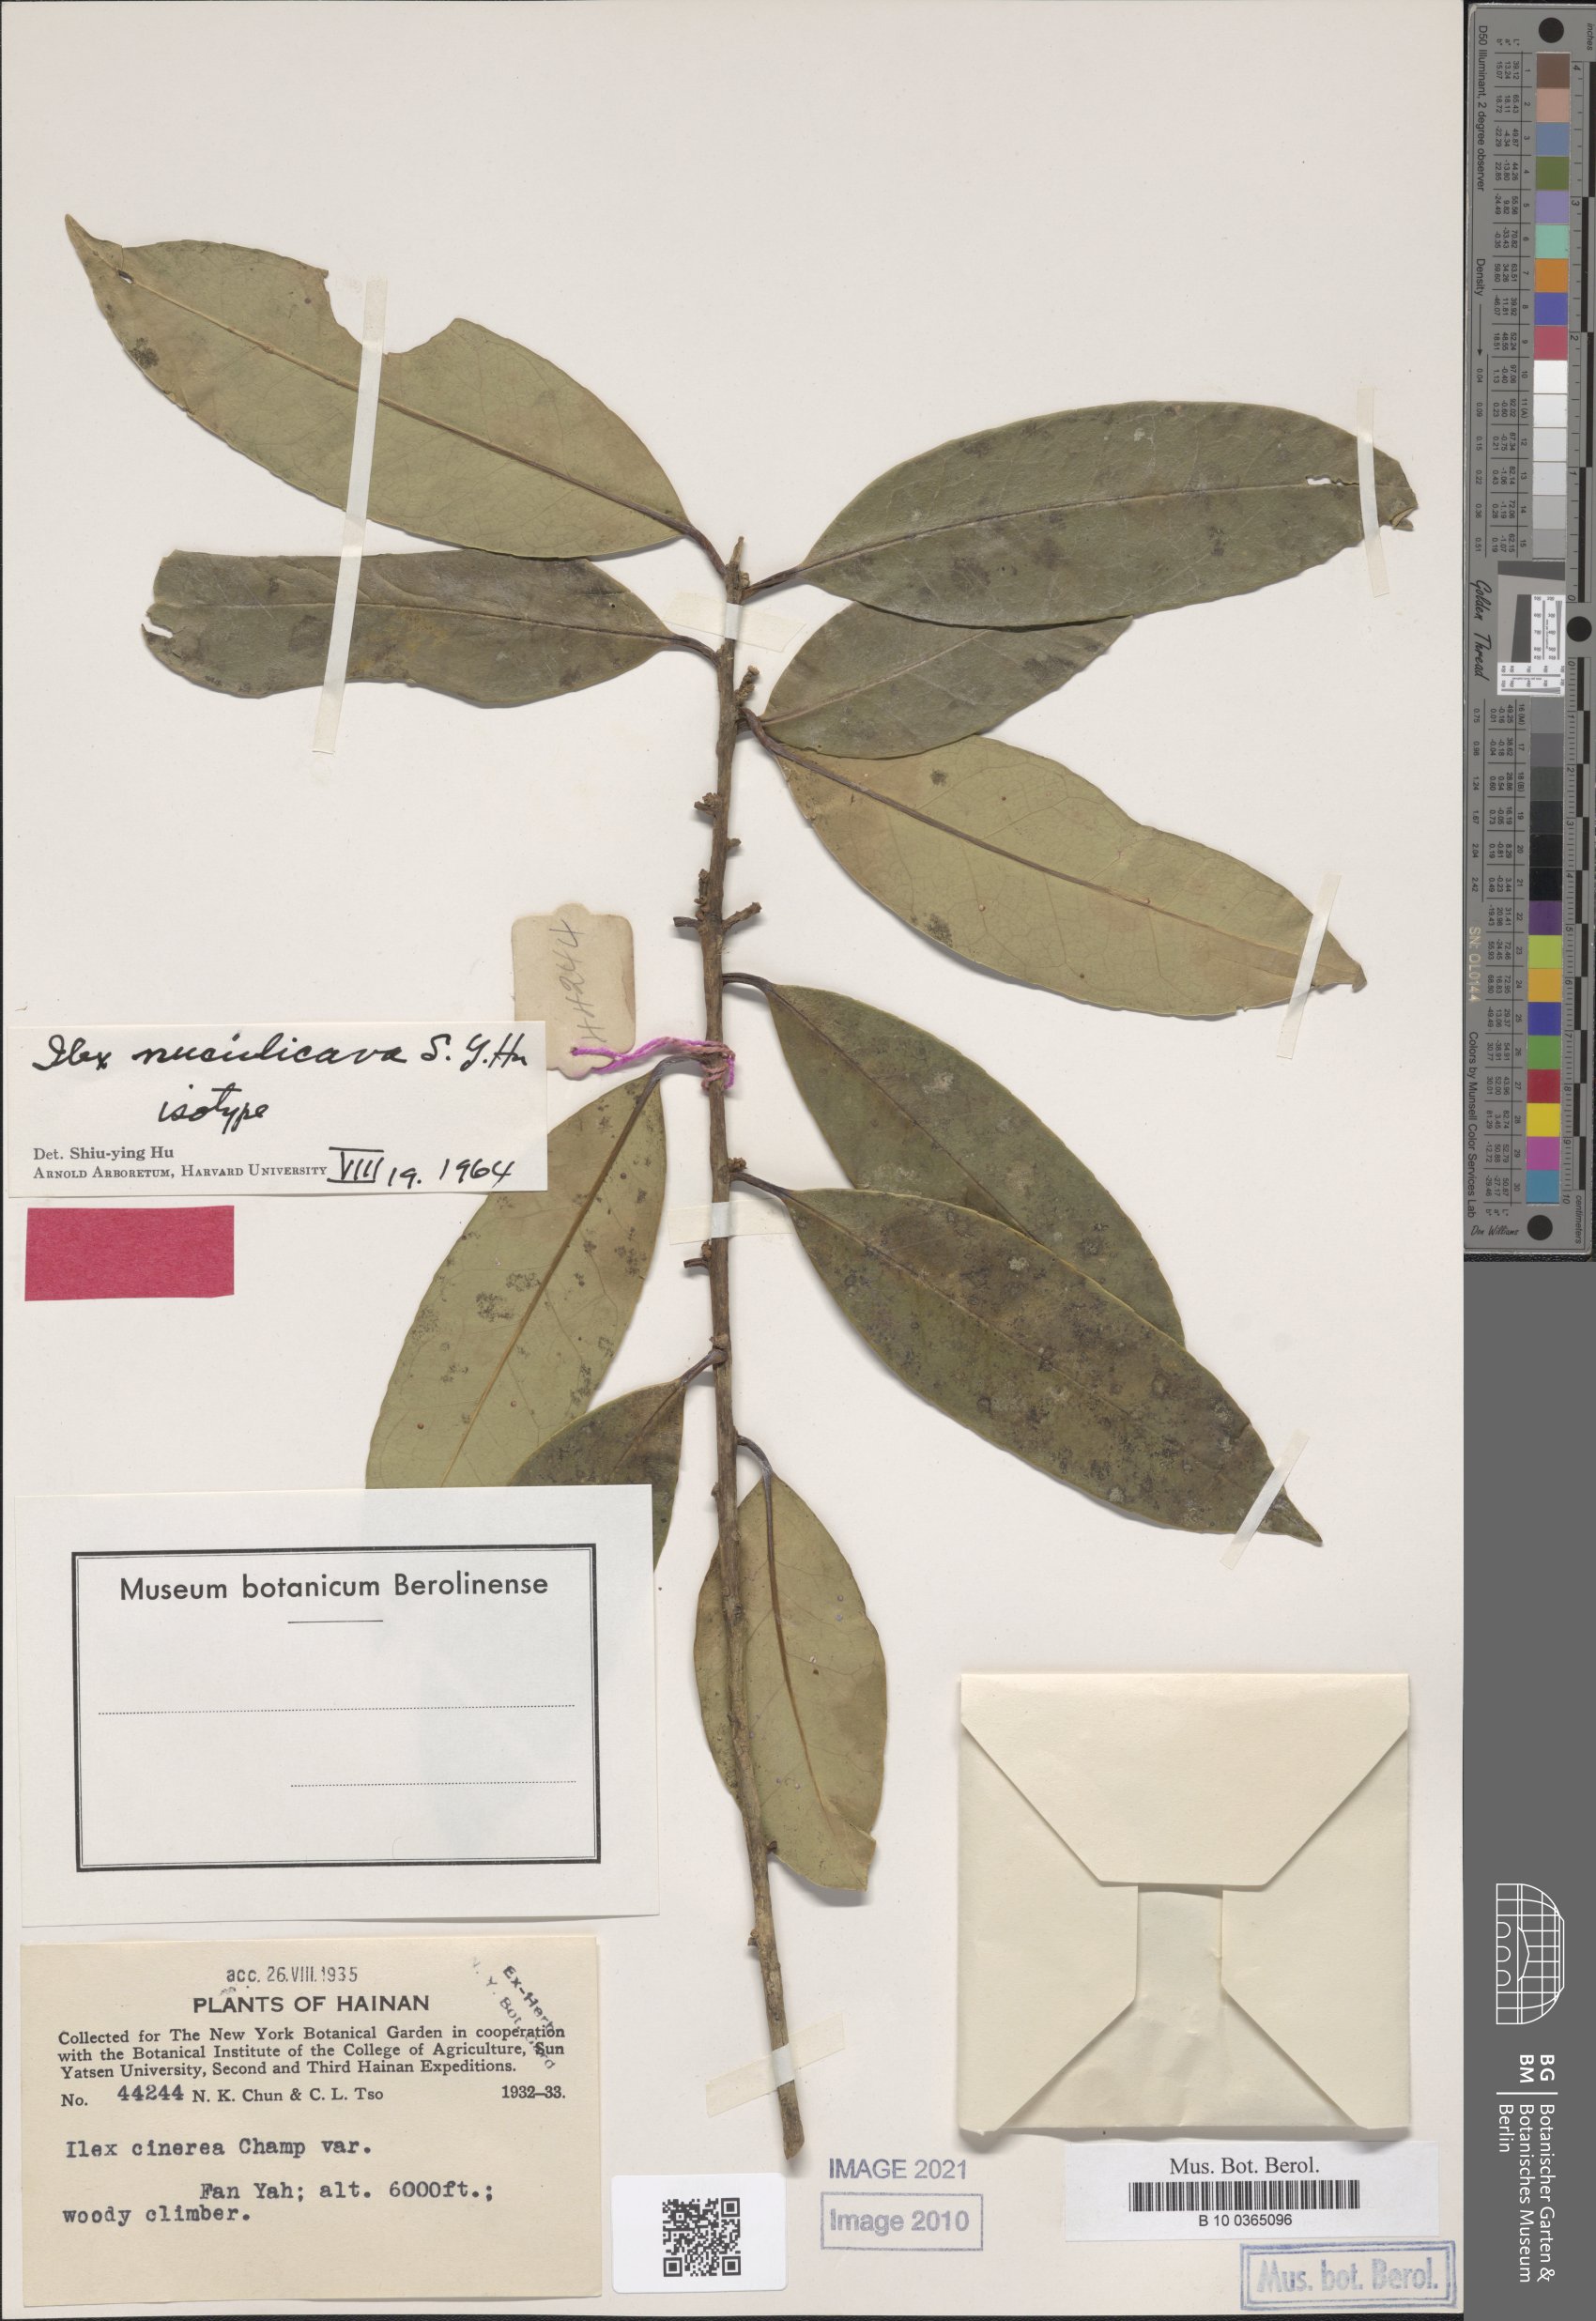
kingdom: Plantae
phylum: Tracheophyta
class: Magnoliopsida
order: Aquifoliales
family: Aquifoliaceae
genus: Ilex
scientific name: Ilex nuculicava
